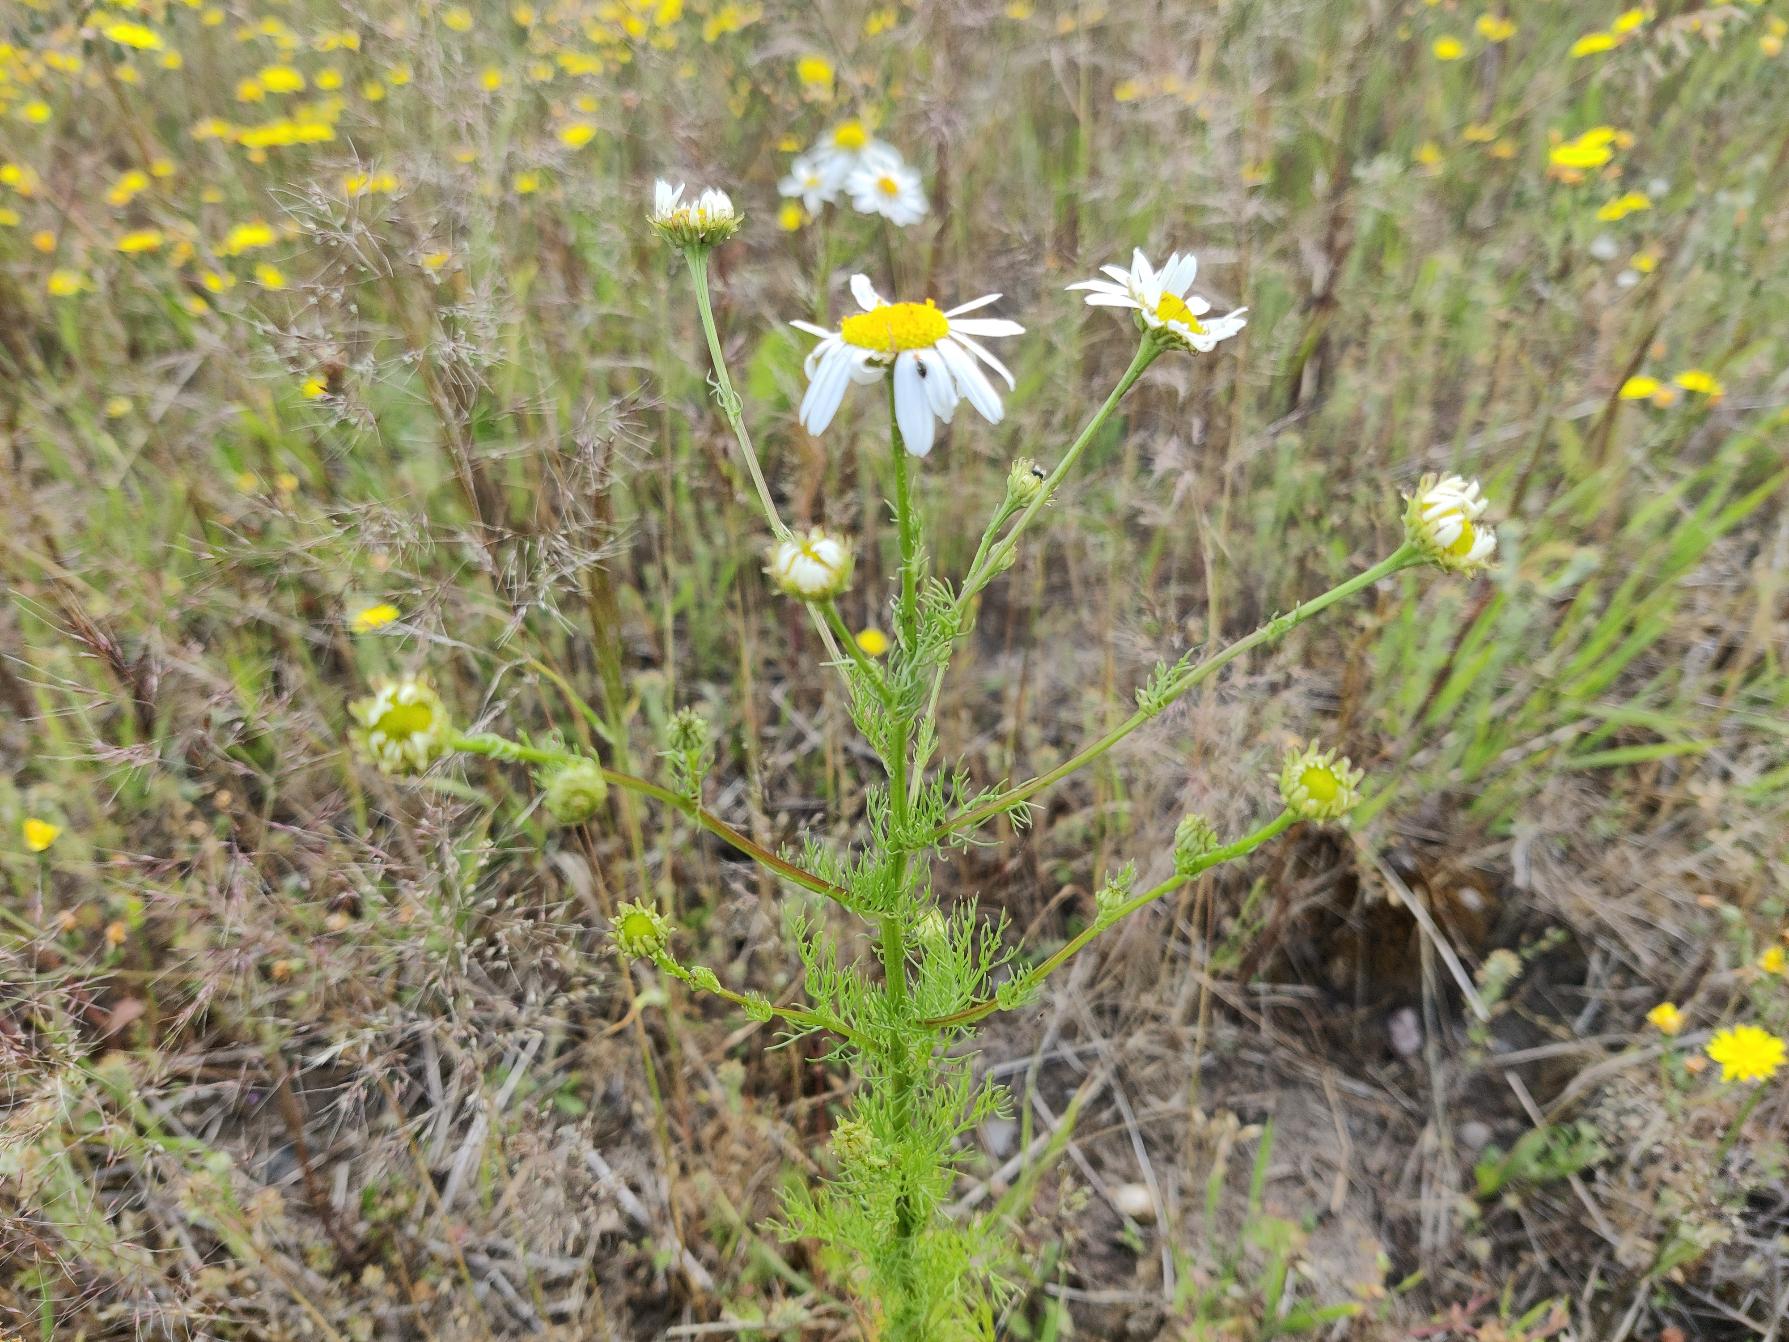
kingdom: Plantae
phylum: Tracheophyta
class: Magnoliopsida
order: Asterales
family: Asteraceae
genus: Tripleurospermum
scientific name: Tripleurospermum inodorum
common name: Lugtløs kamille
